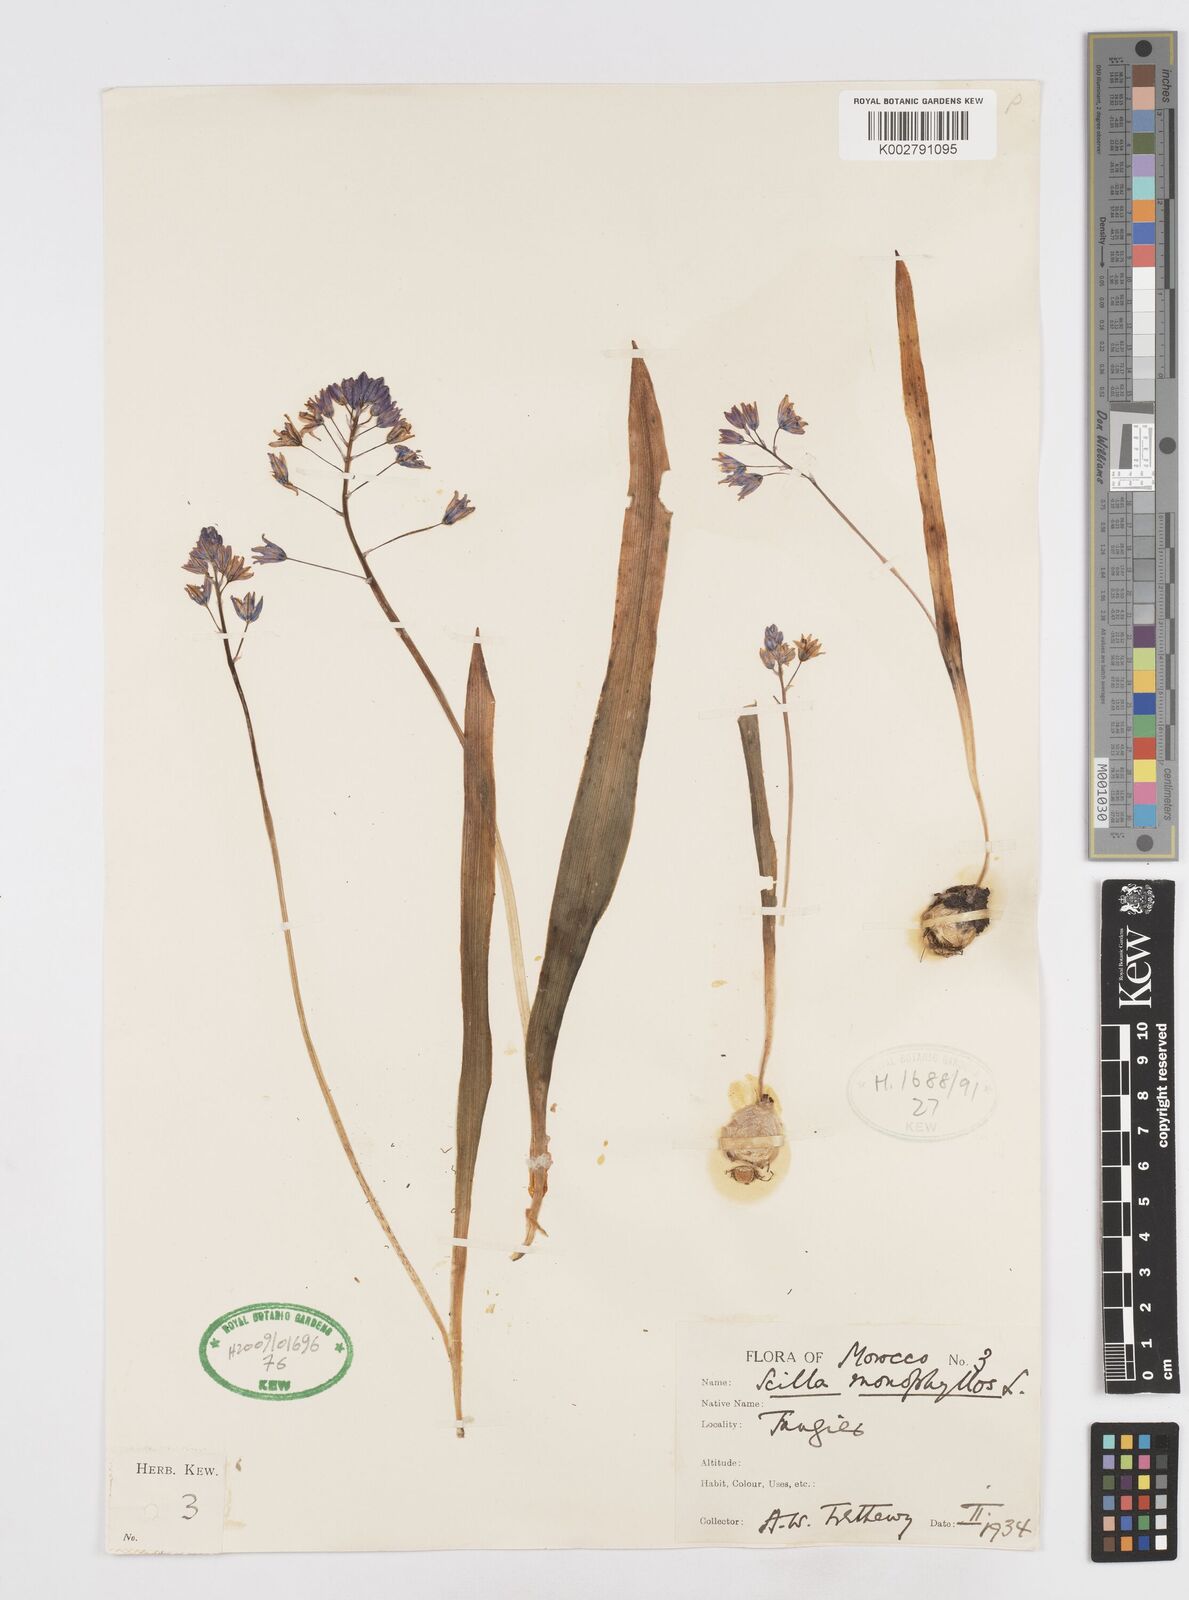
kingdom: Plantae
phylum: Tracheophyta
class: Liliopsida
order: Asparagales
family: Asparagaceae
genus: Scilla
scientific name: Scilla monophyllos
